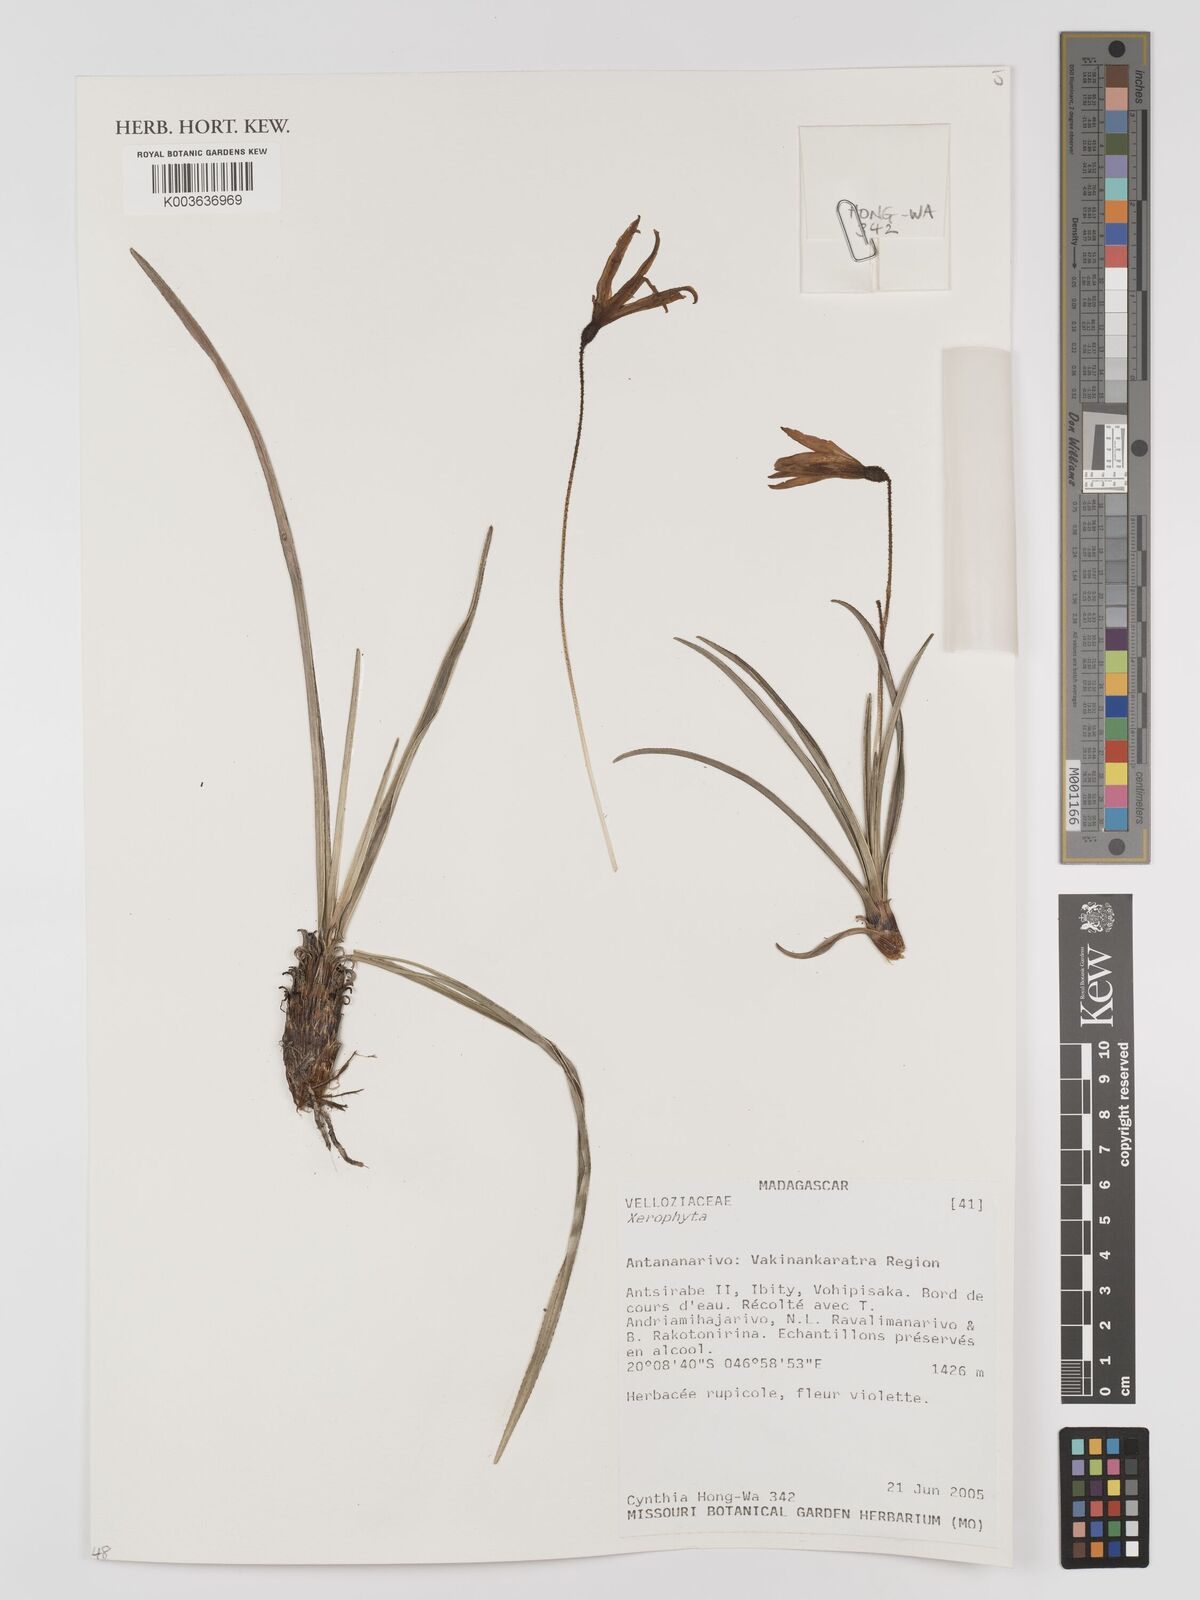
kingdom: Plantae
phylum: Tracheophyta
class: Liliopsida
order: Pandanales
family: Velloziaceae
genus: Xerophyta
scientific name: Xerophyta
